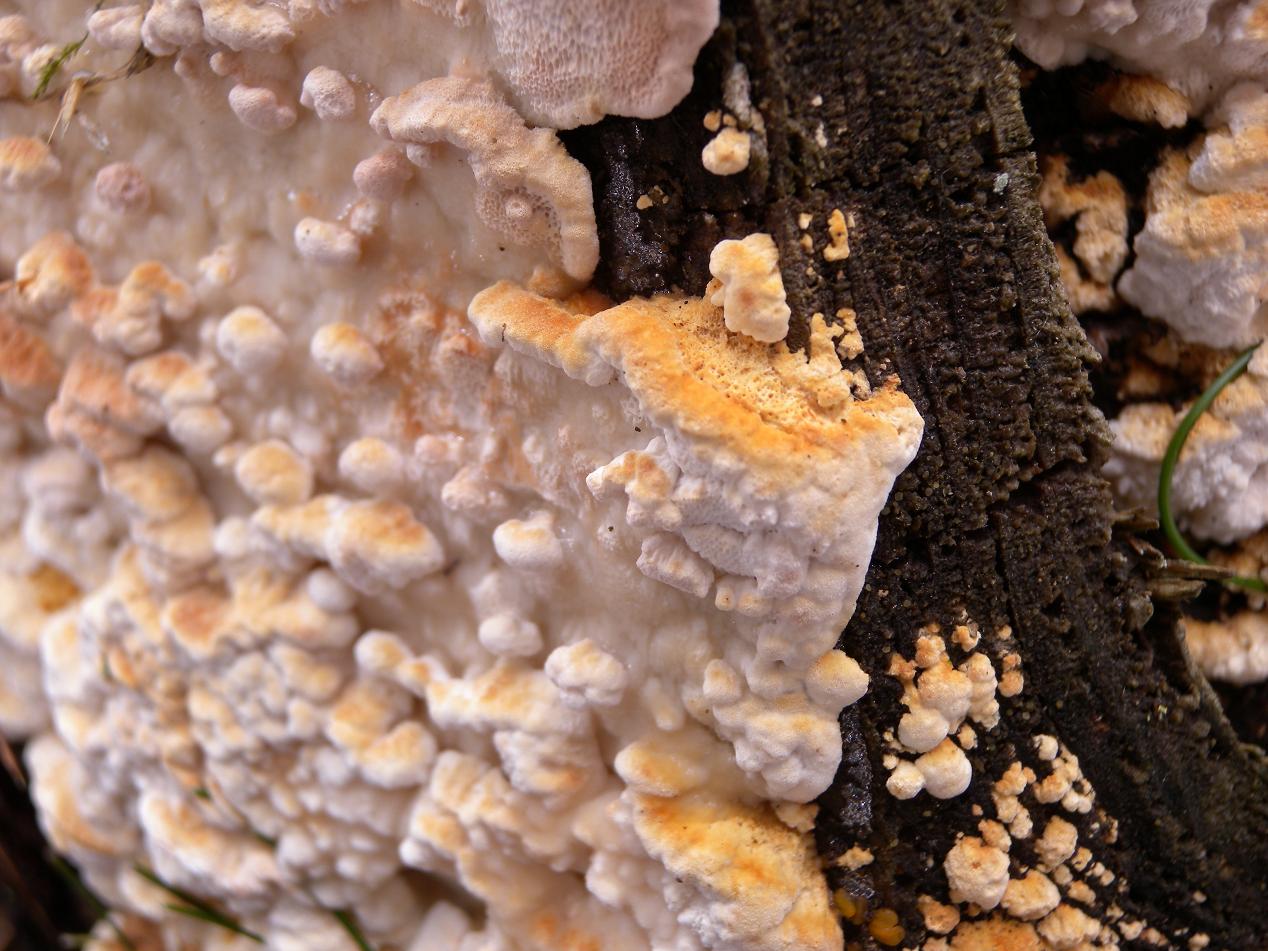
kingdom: Fungi
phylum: Basidiomycota
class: Agaricomycetes
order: Polyporales
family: Fomitopsidaceae
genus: Neoantrodia
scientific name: Neoantrodia serialis
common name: række-sejporesvamp
